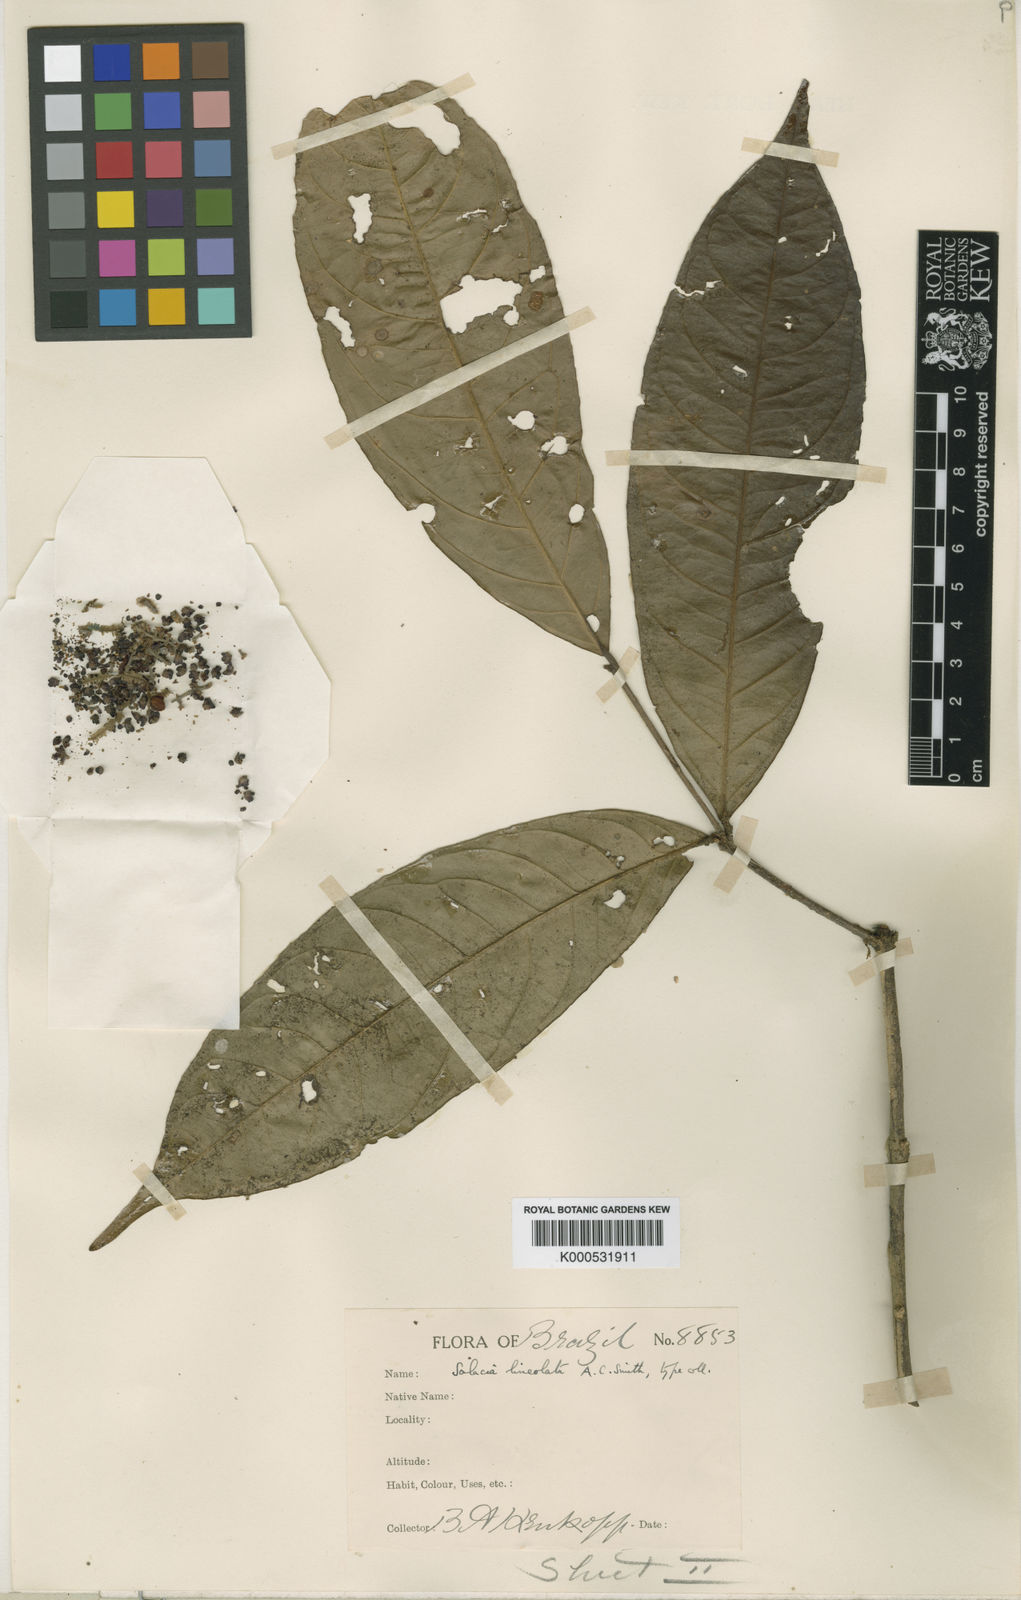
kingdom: Plantae
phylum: Tracheophyta
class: Magnoliopsida
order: Celastrales
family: Celastraceae
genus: Cheiloclinium
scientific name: Cheiloclinium cognatum
